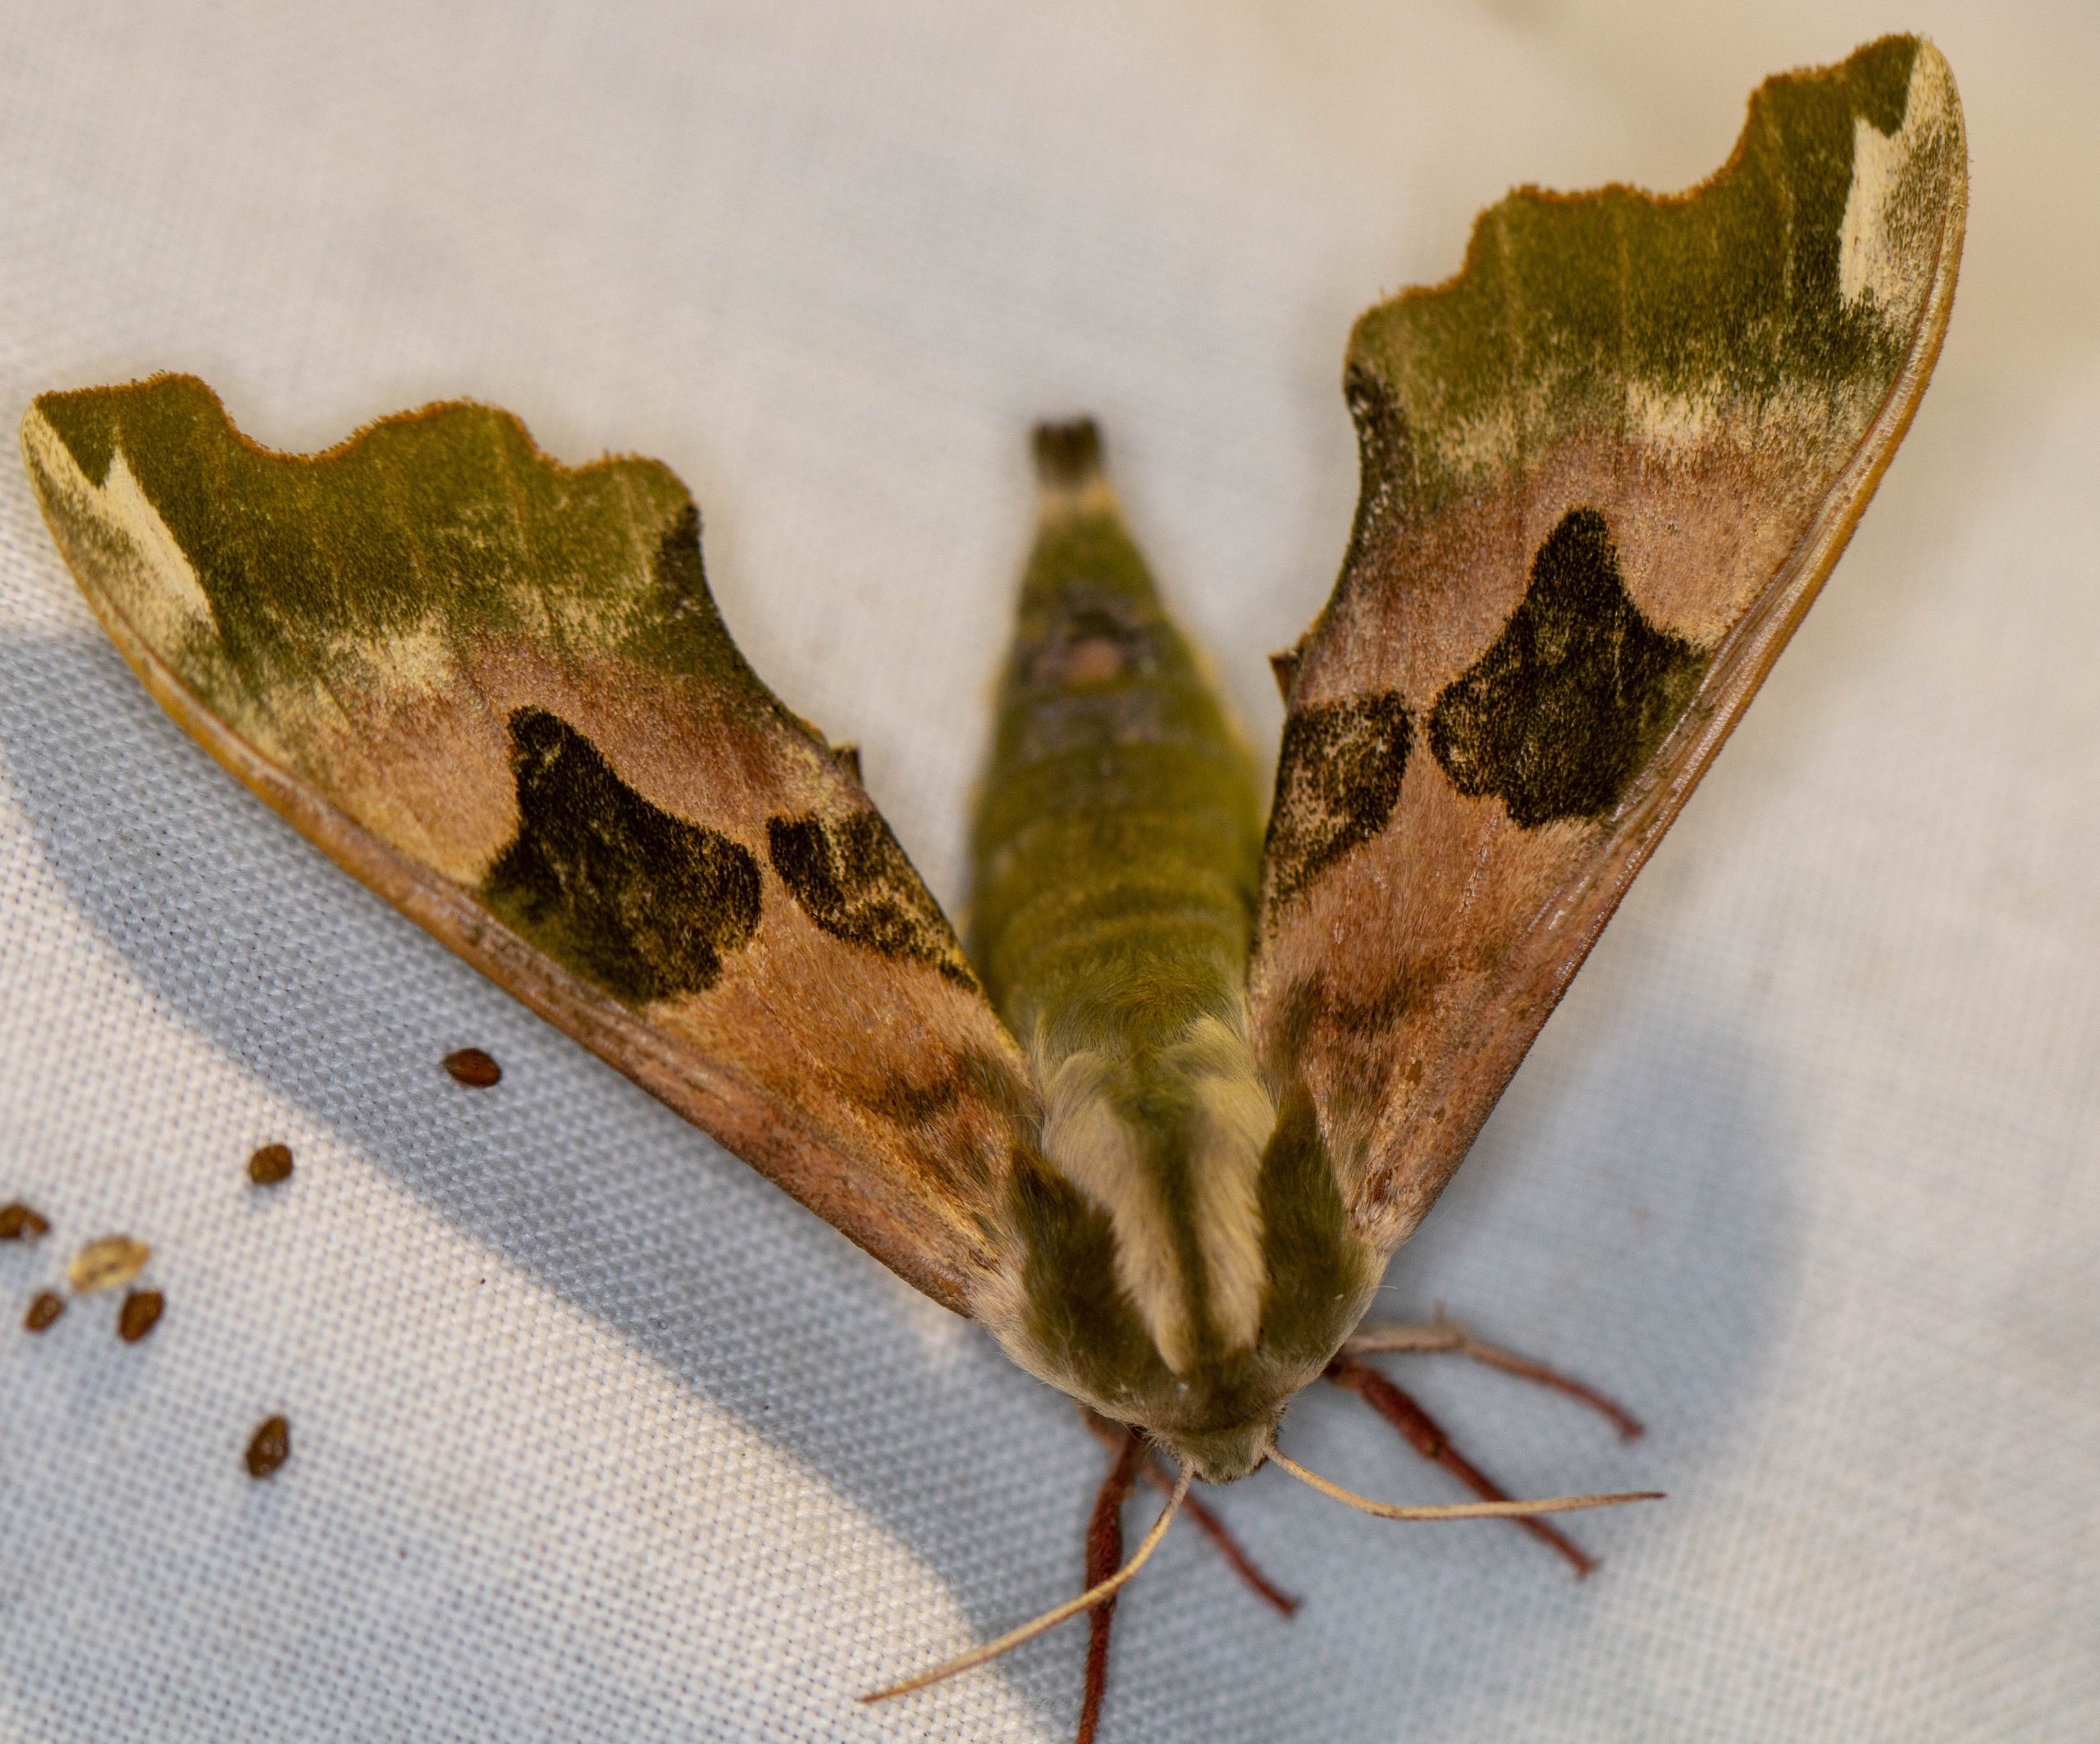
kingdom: Animalia
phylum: Arthropoda
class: Insecta
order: Lepidoptera
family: Sphingidae
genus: Mimas
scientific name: Mimas tiliae
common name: Lindesværmer
